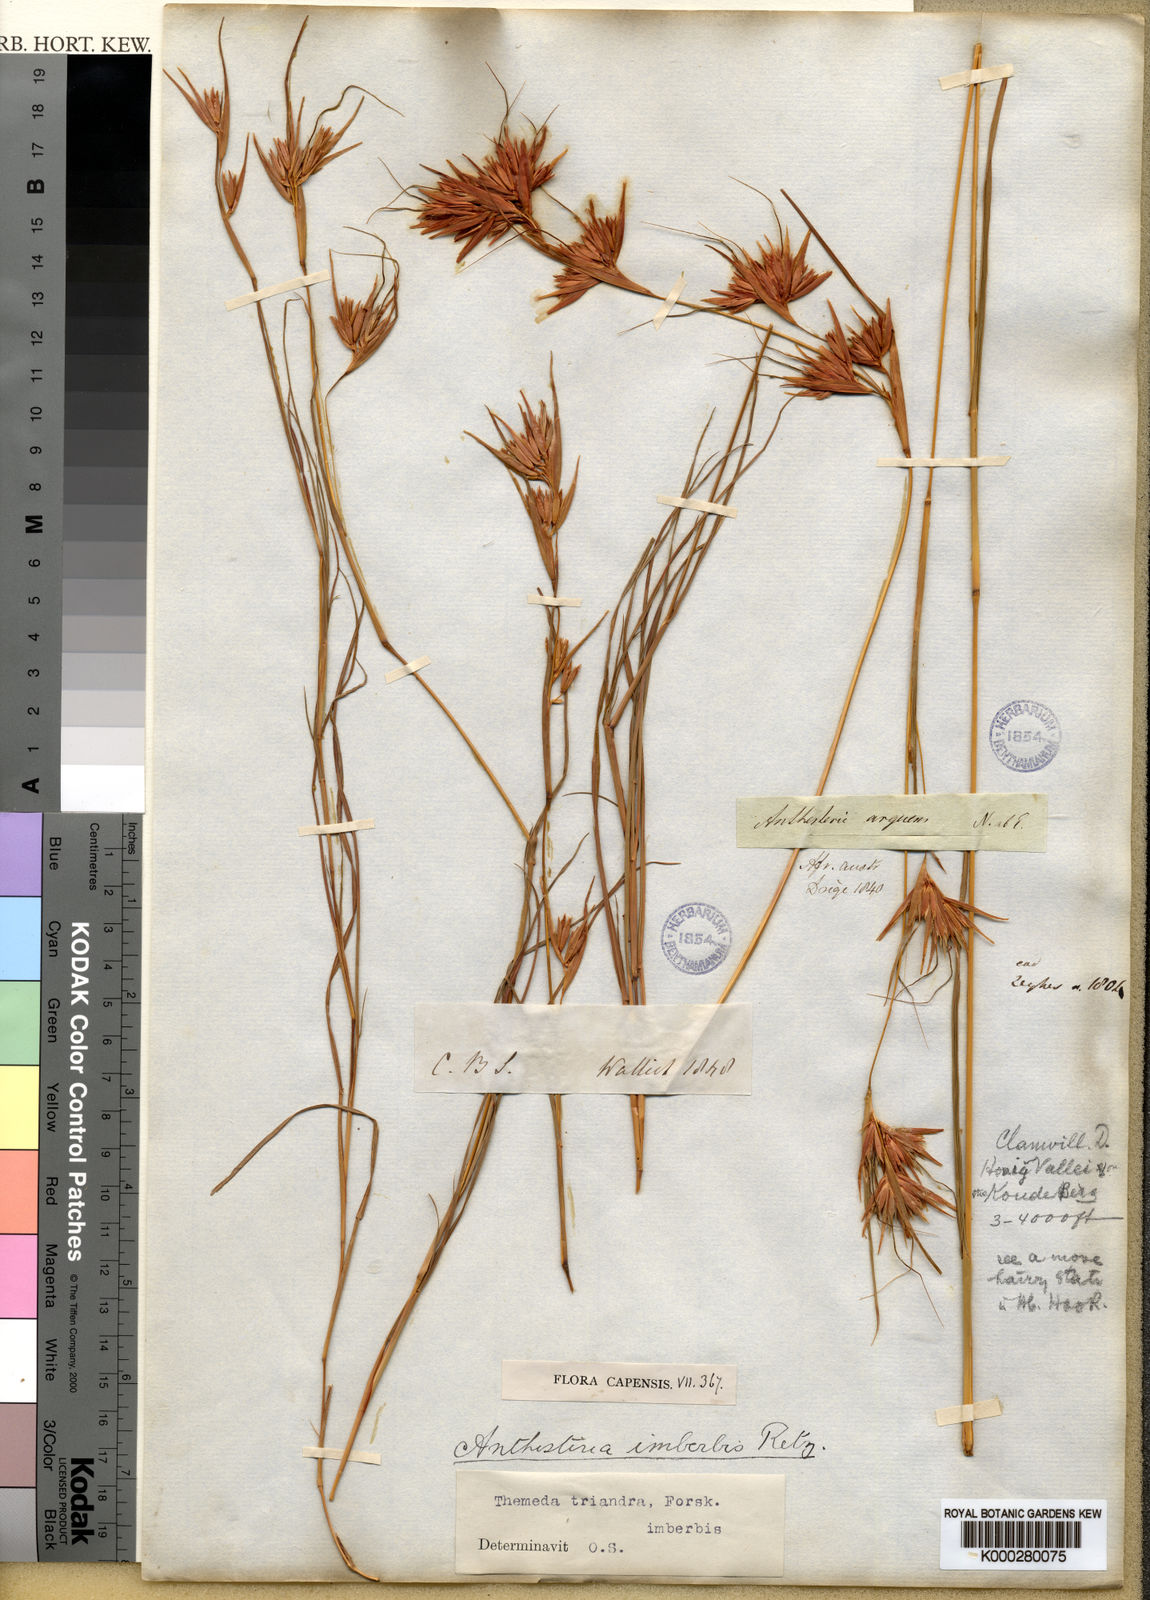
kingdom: Plantae
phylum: Tracheophyta
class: Liliopsida
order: Poales
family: Poaceae
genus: Themeda
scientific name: Themeda triandra
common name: Kangaroo grass
